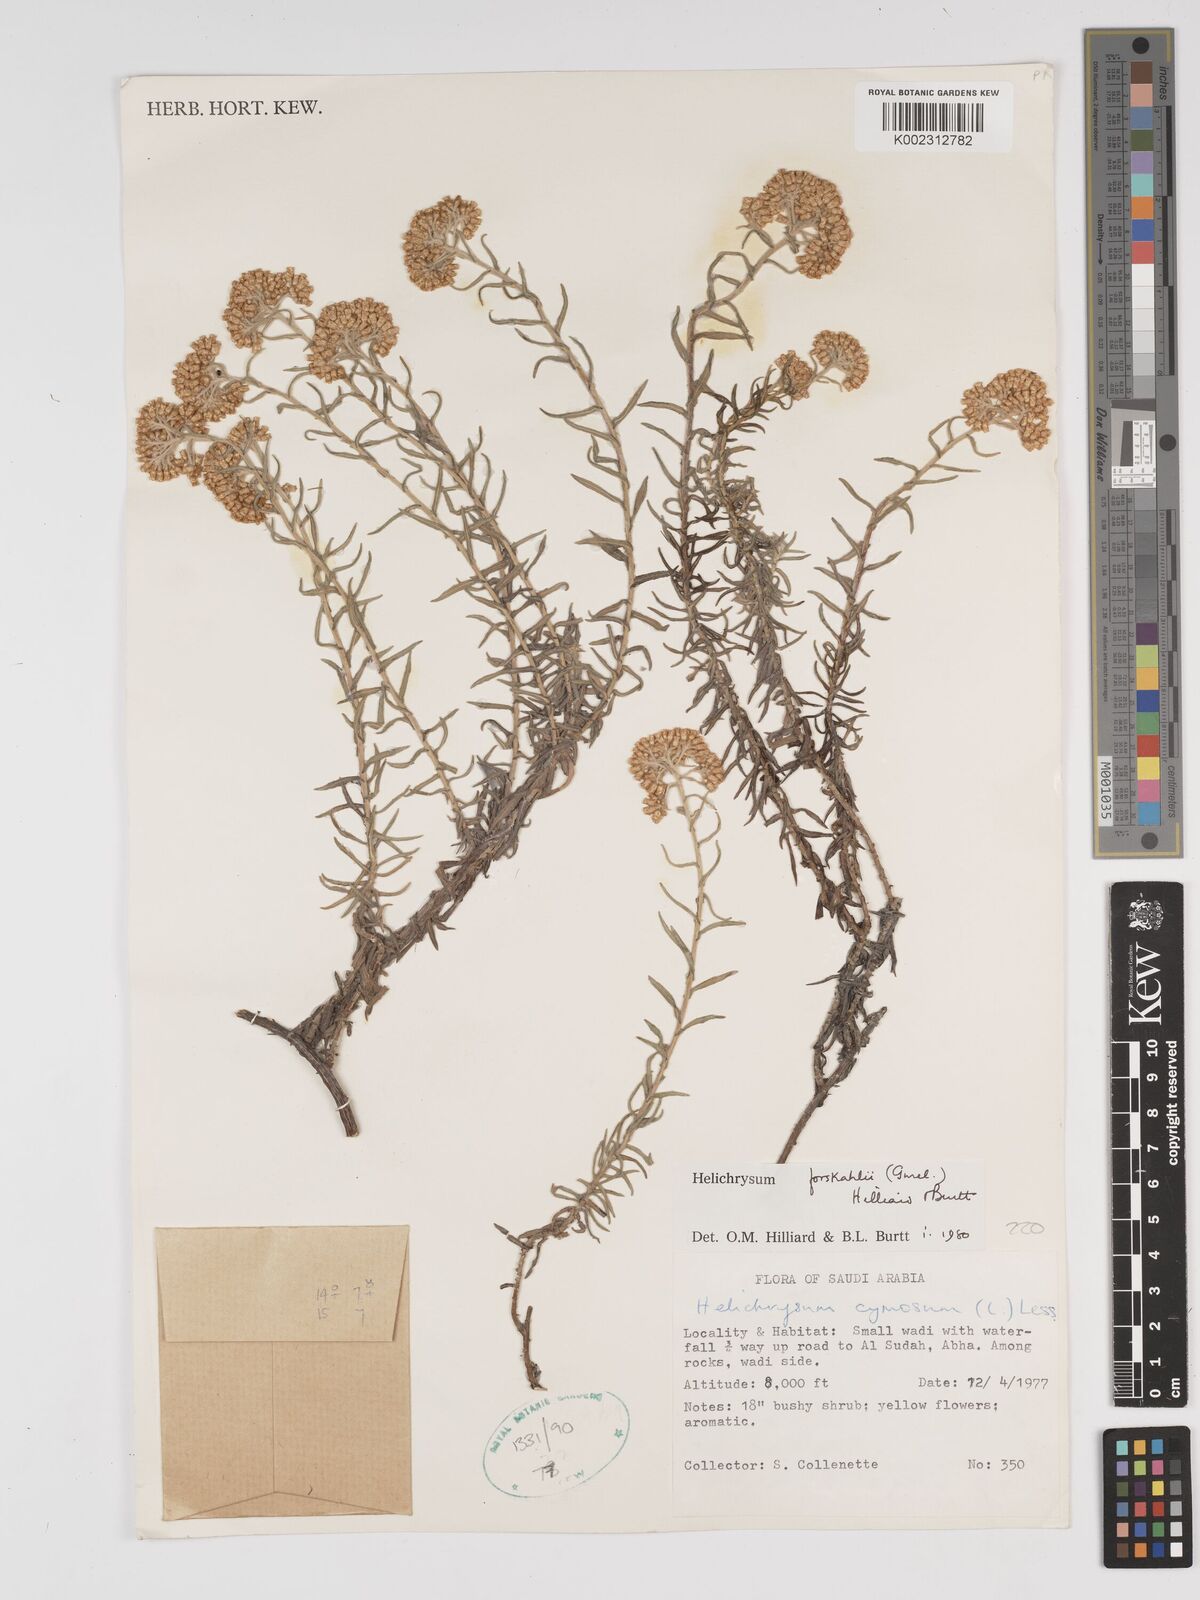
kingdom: Plantae
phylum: Tracheophyta
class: Magnoliopsida
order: Asterales
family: Asteraceae
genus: Helichrysum
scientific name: Helichrysum forskahlii
